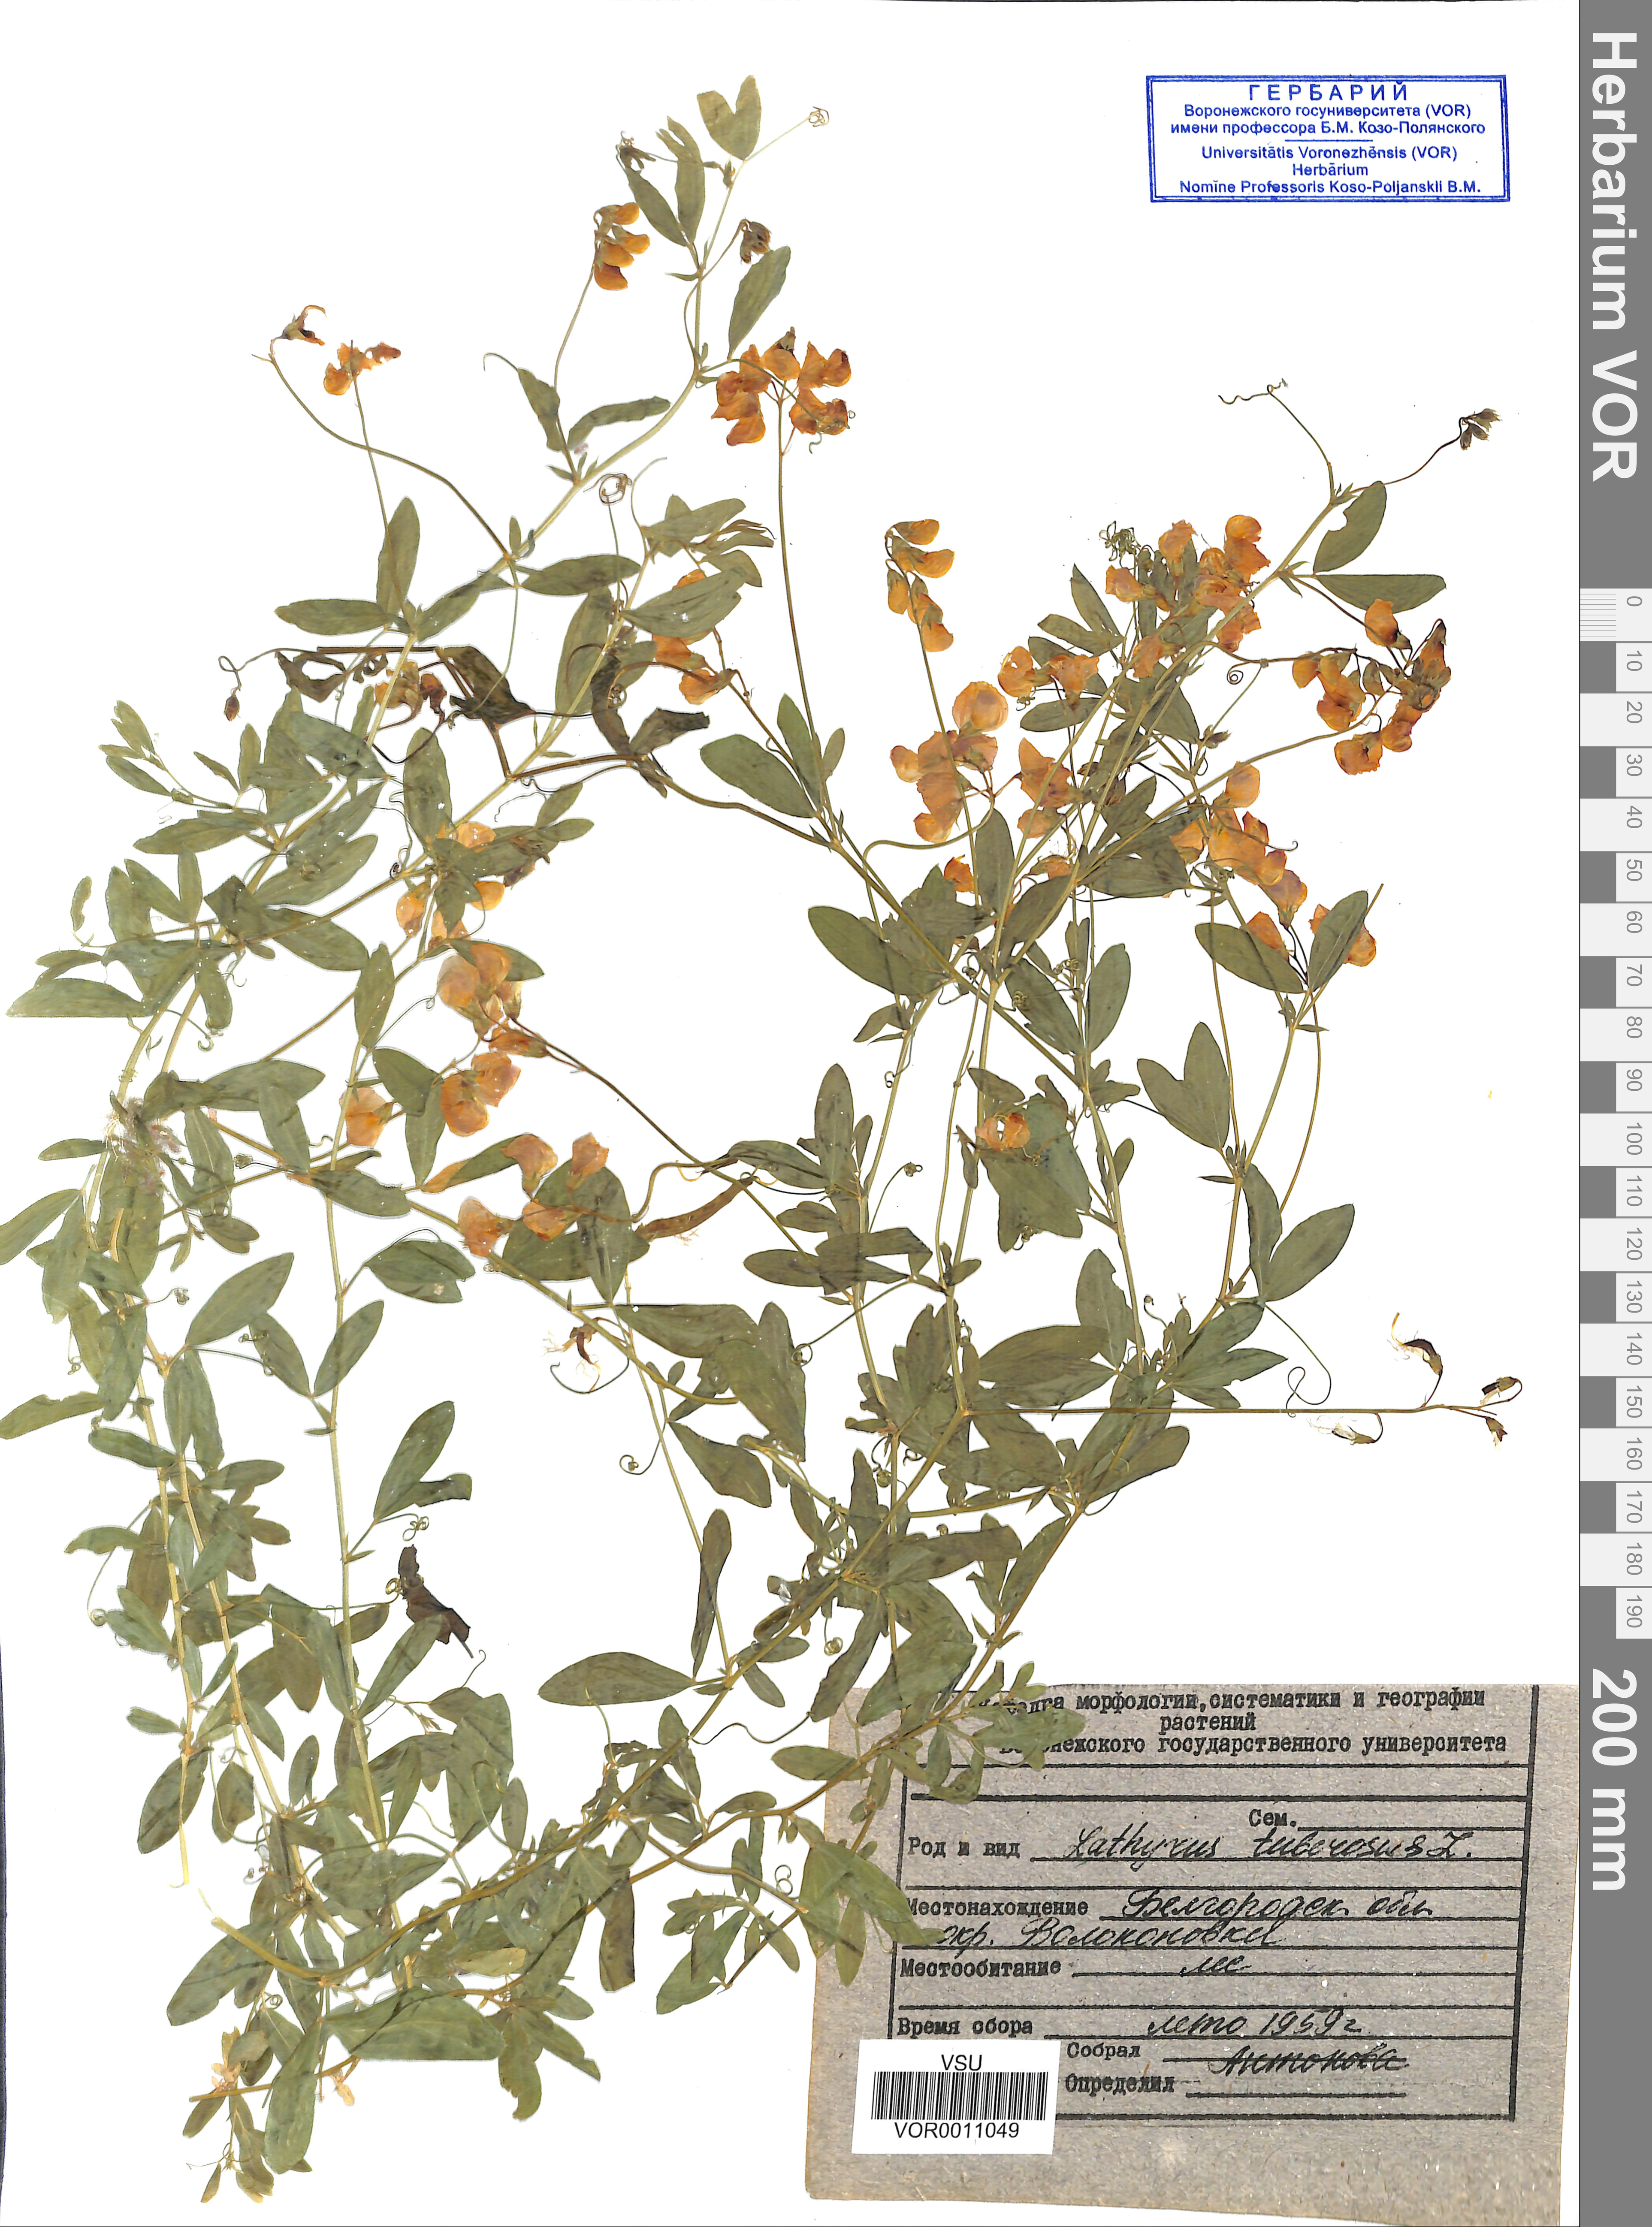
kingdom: Plantae
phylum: Tracheophyta
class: Magnoliopsida
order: Fabales
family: Fabaceae
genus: Lathyrus
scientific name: Lathyrus tuberosus
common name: Tuberous pea
